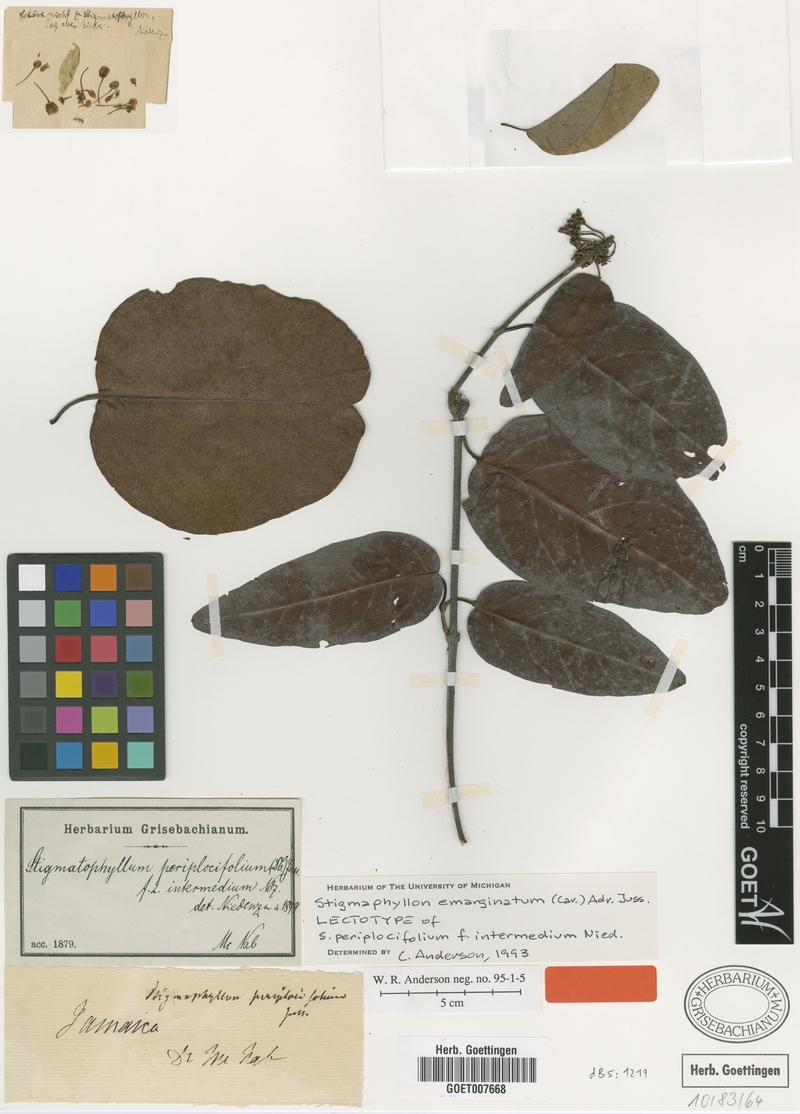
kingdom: Plantae
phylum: Tracheophyta
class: Magnoliopsida
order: Malpighiales
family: Malpighiaceae
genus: Stigmaphyllon
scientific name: Stigmaphyllon emarginatum
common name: Monarch amazonvine
